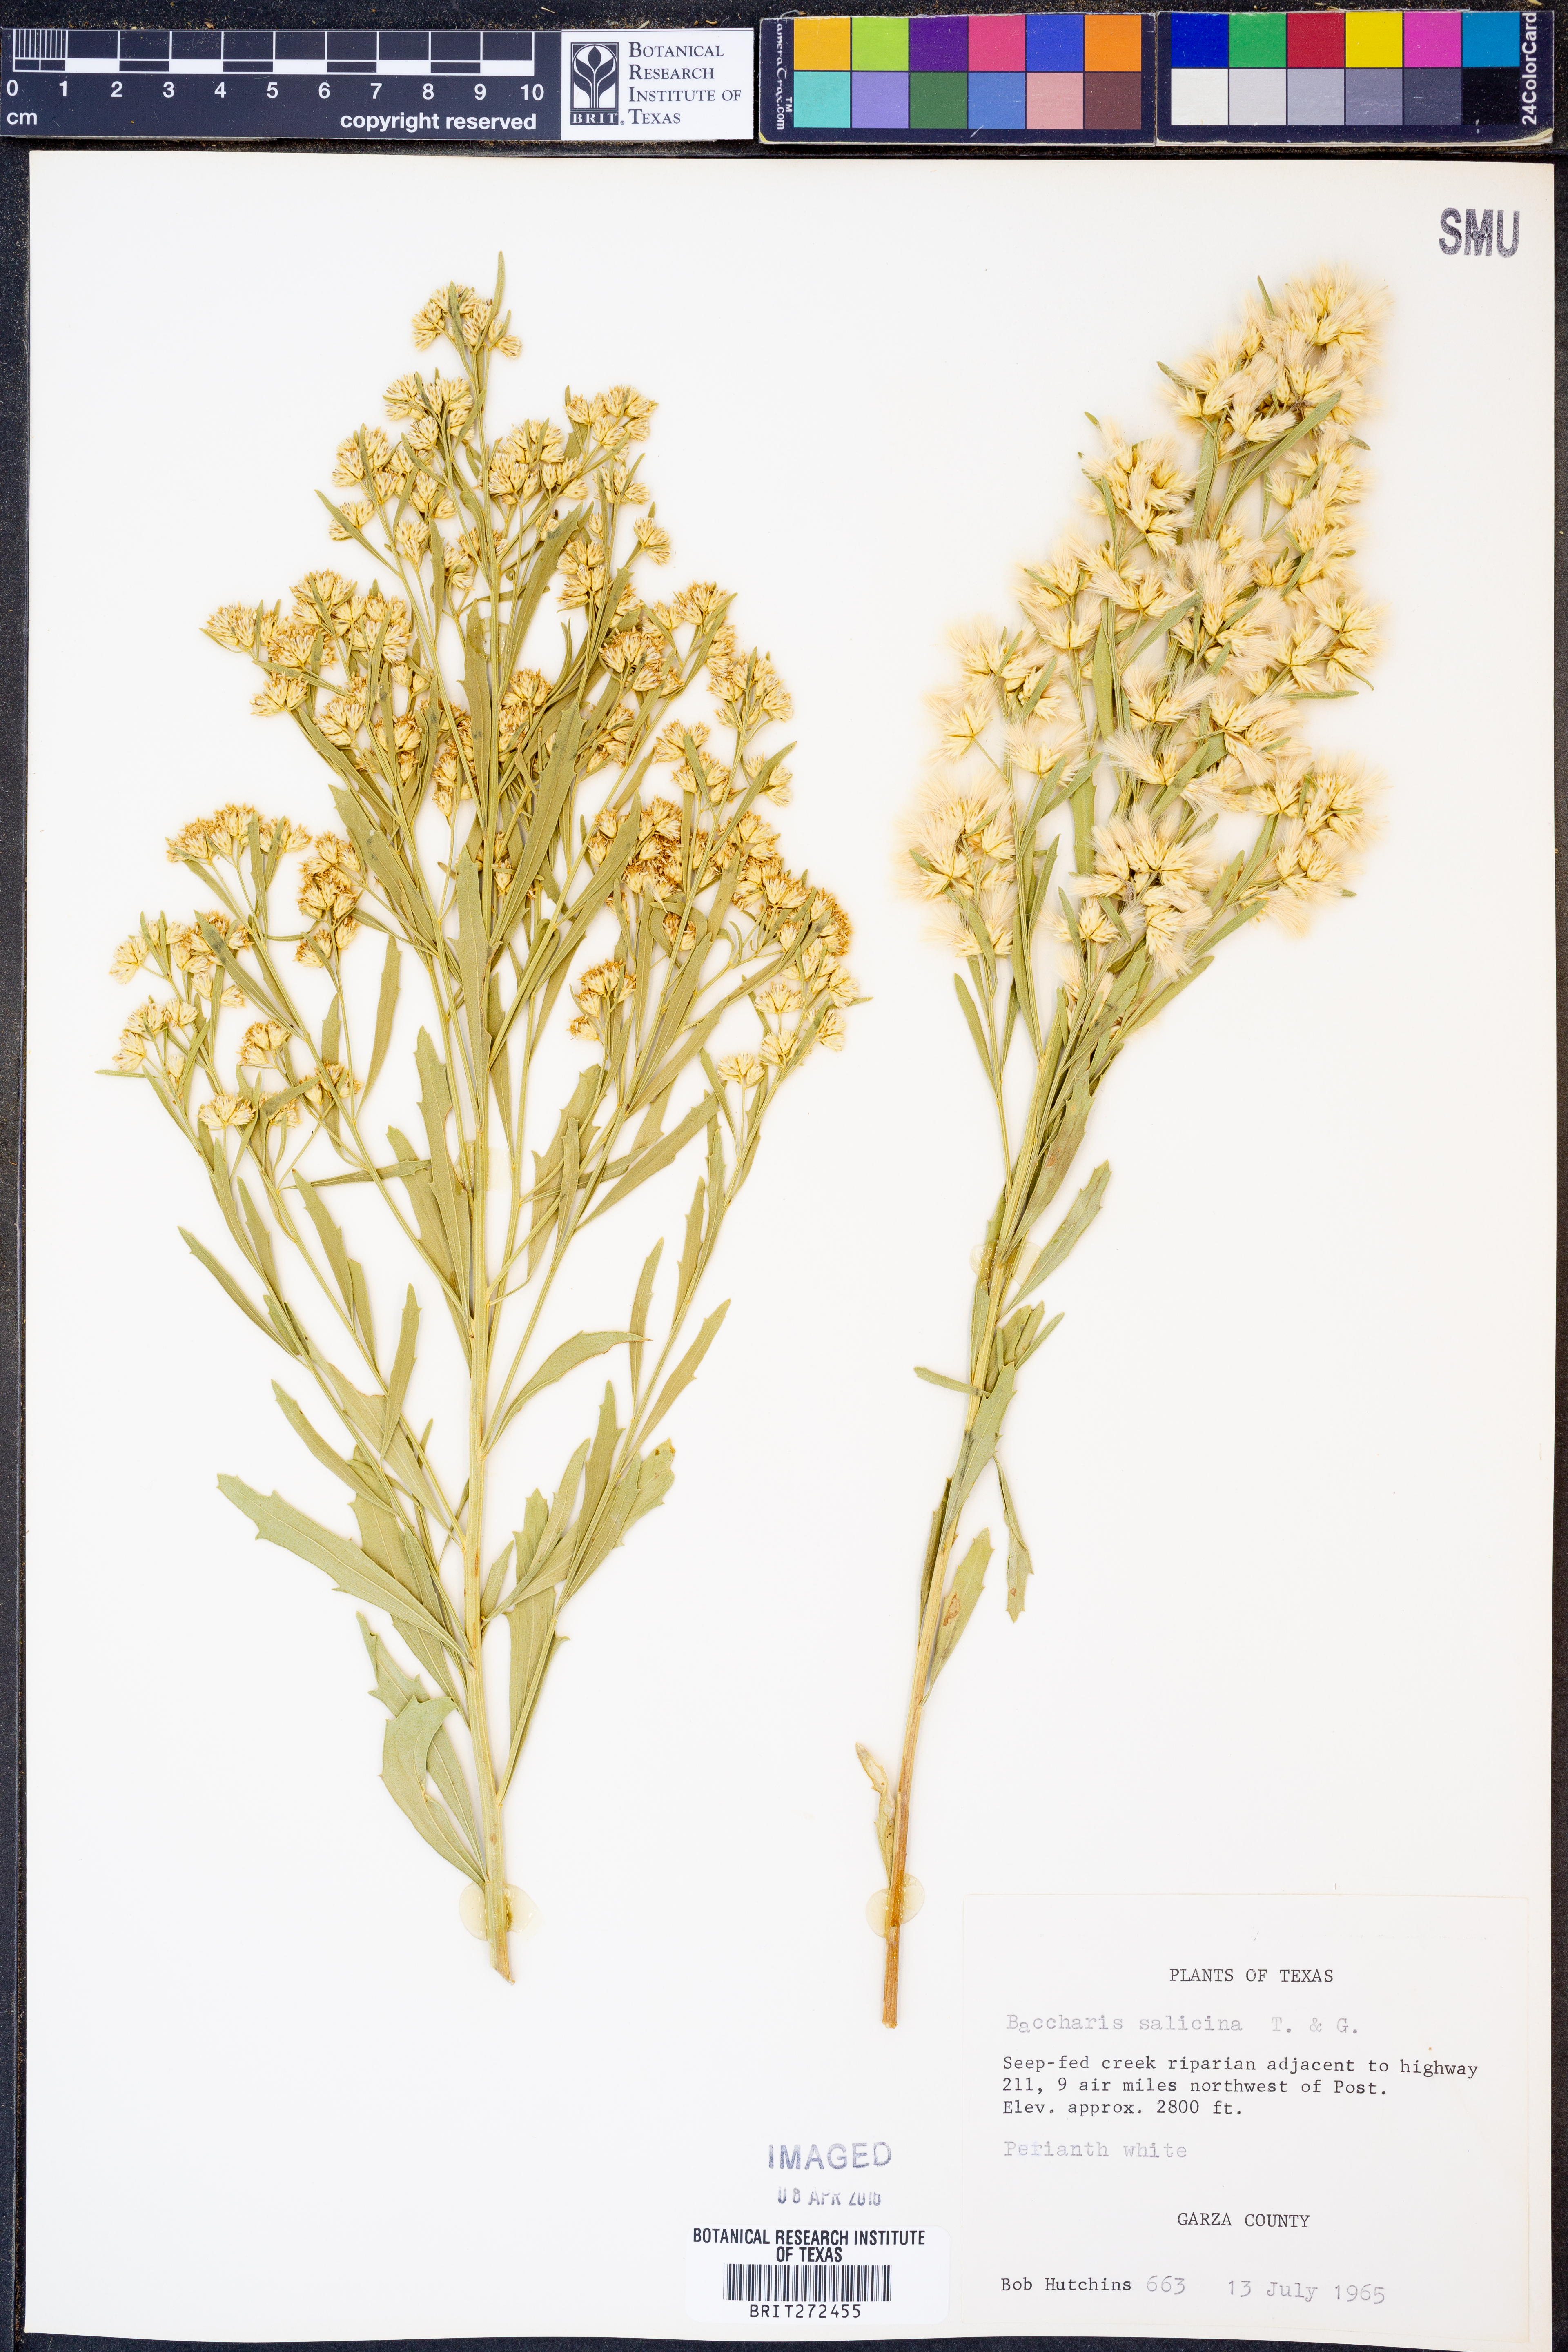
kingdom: Plantae
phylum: Tracheophyta
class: Magnoliopsida
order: Asterales
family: Asteraceae
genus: Baccharis
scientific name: Baccharis salicina
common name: Willow baccharis
